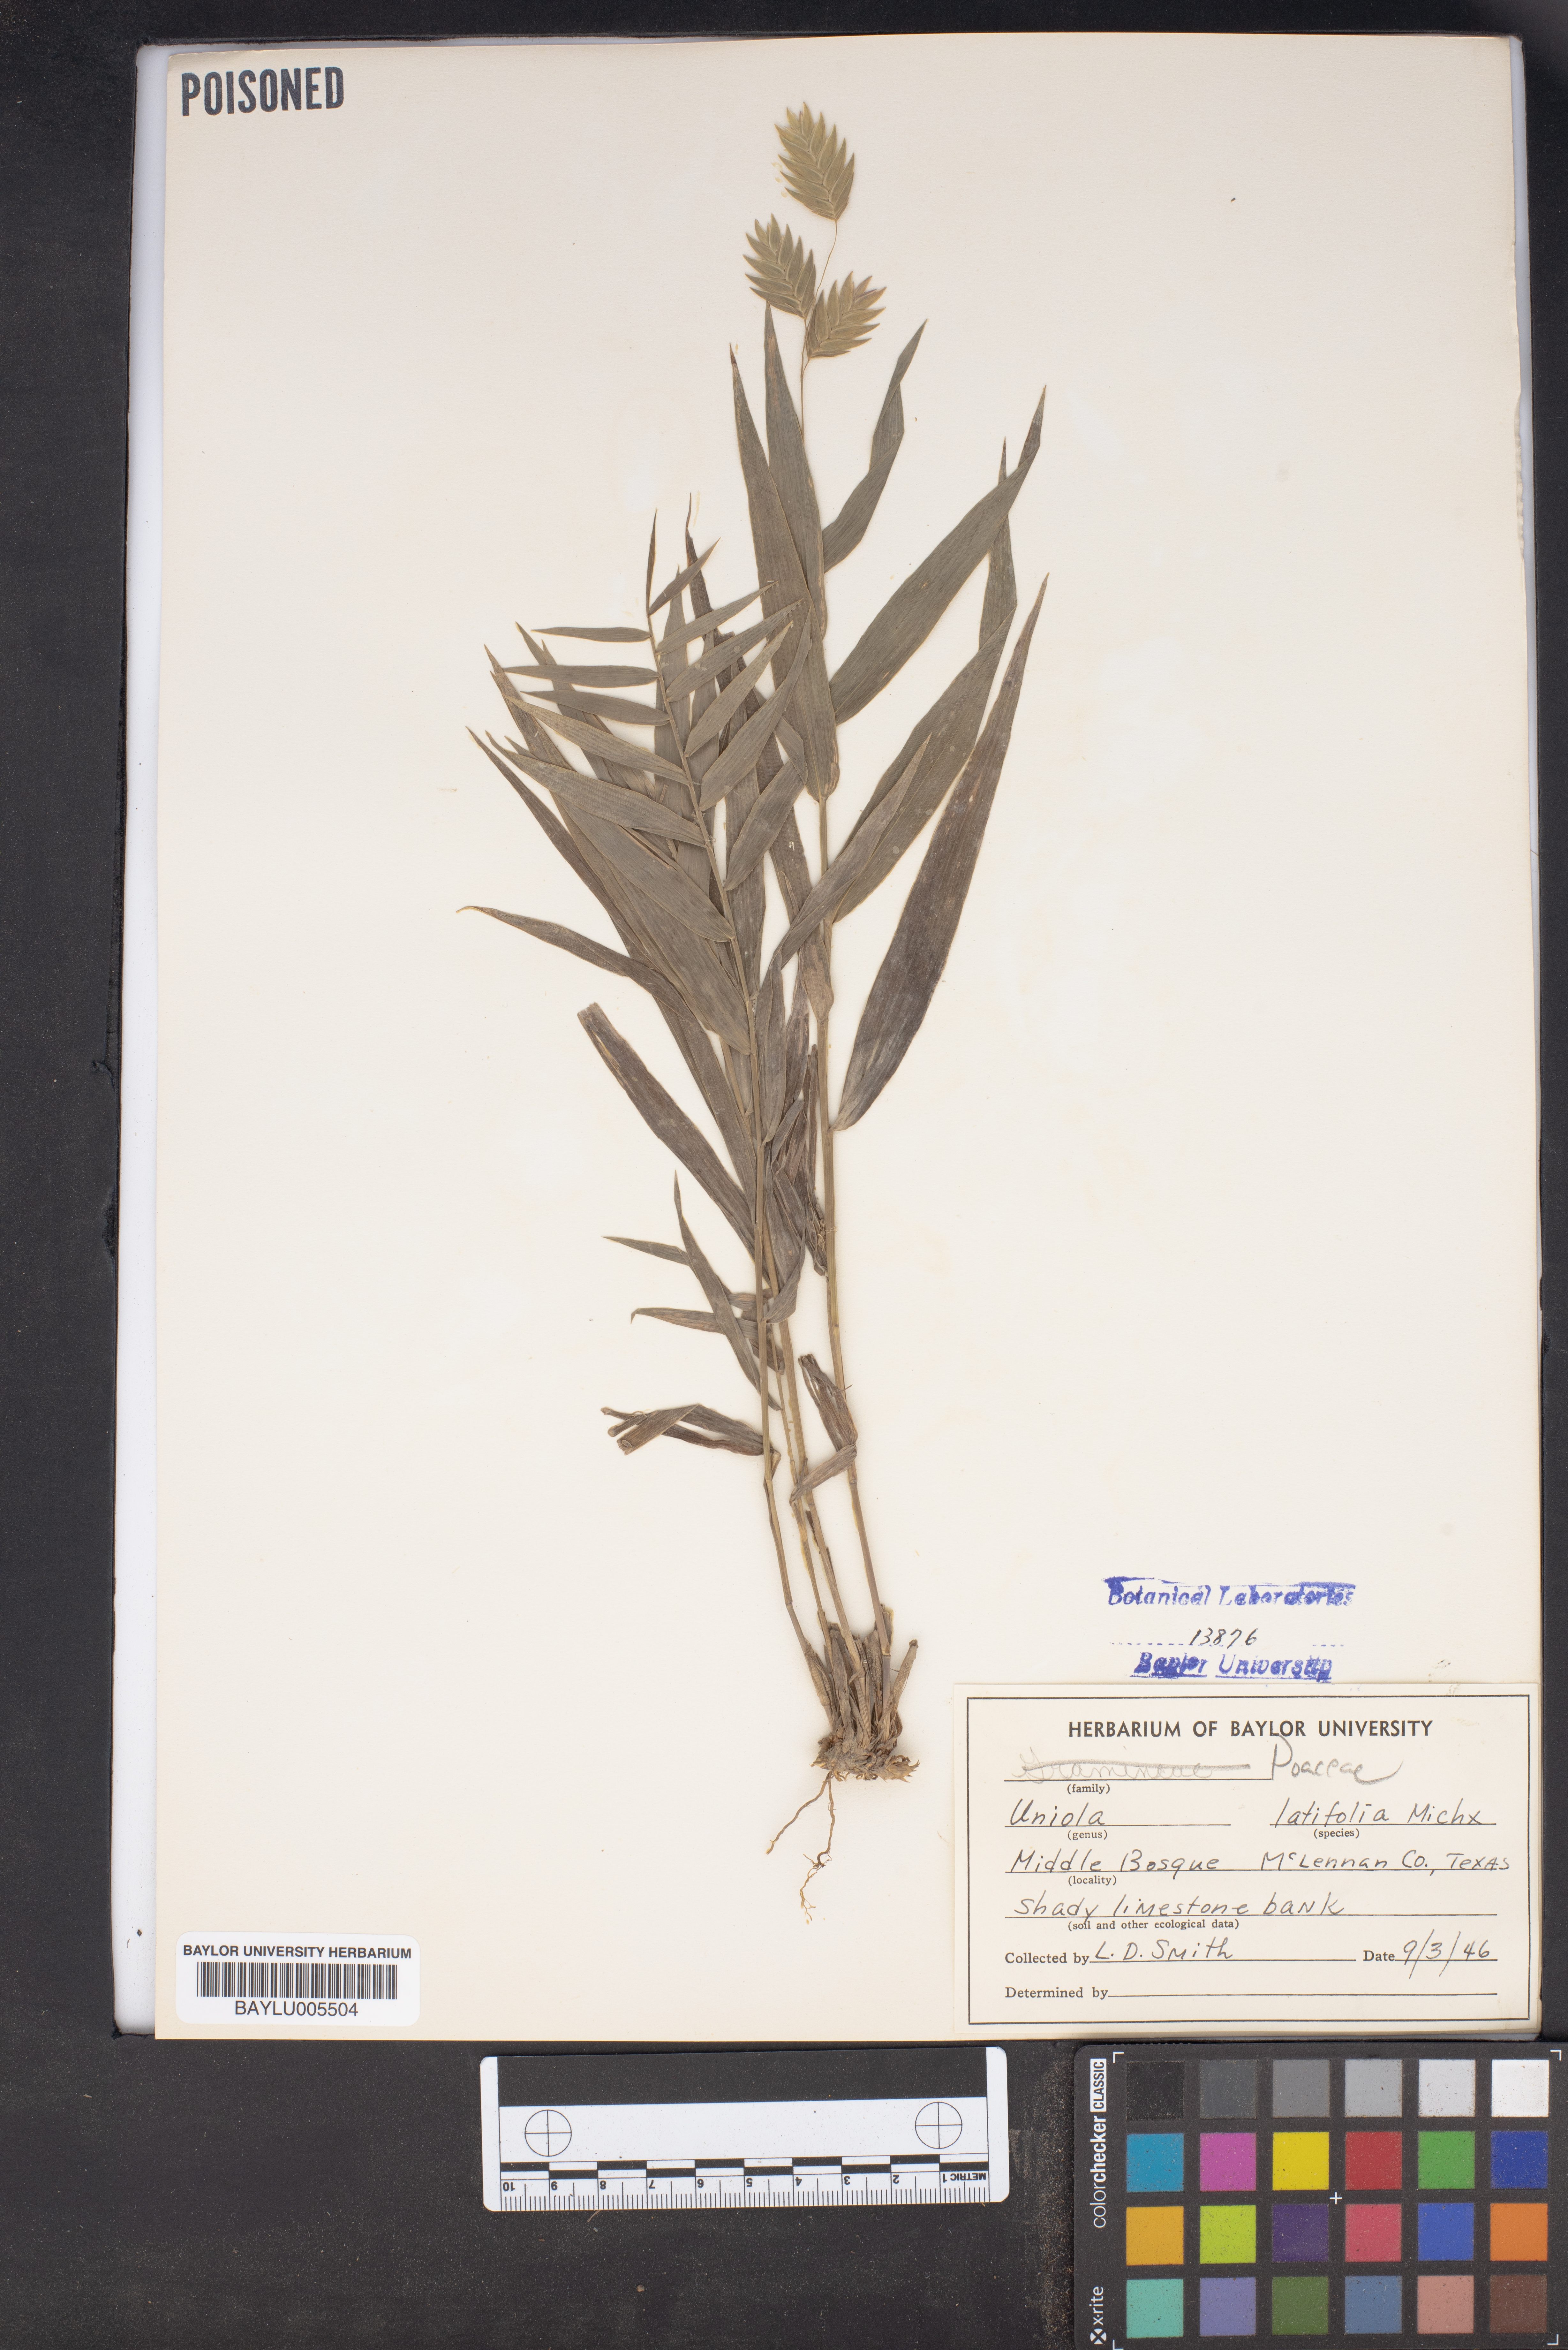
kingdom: Plantae
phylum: Tracheophyta
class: Liliopsida
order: Poales
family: Poaceae
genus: Chasmanthium
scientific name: Chasmanthium latifolium
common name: Broad-leaved chasmanthium
